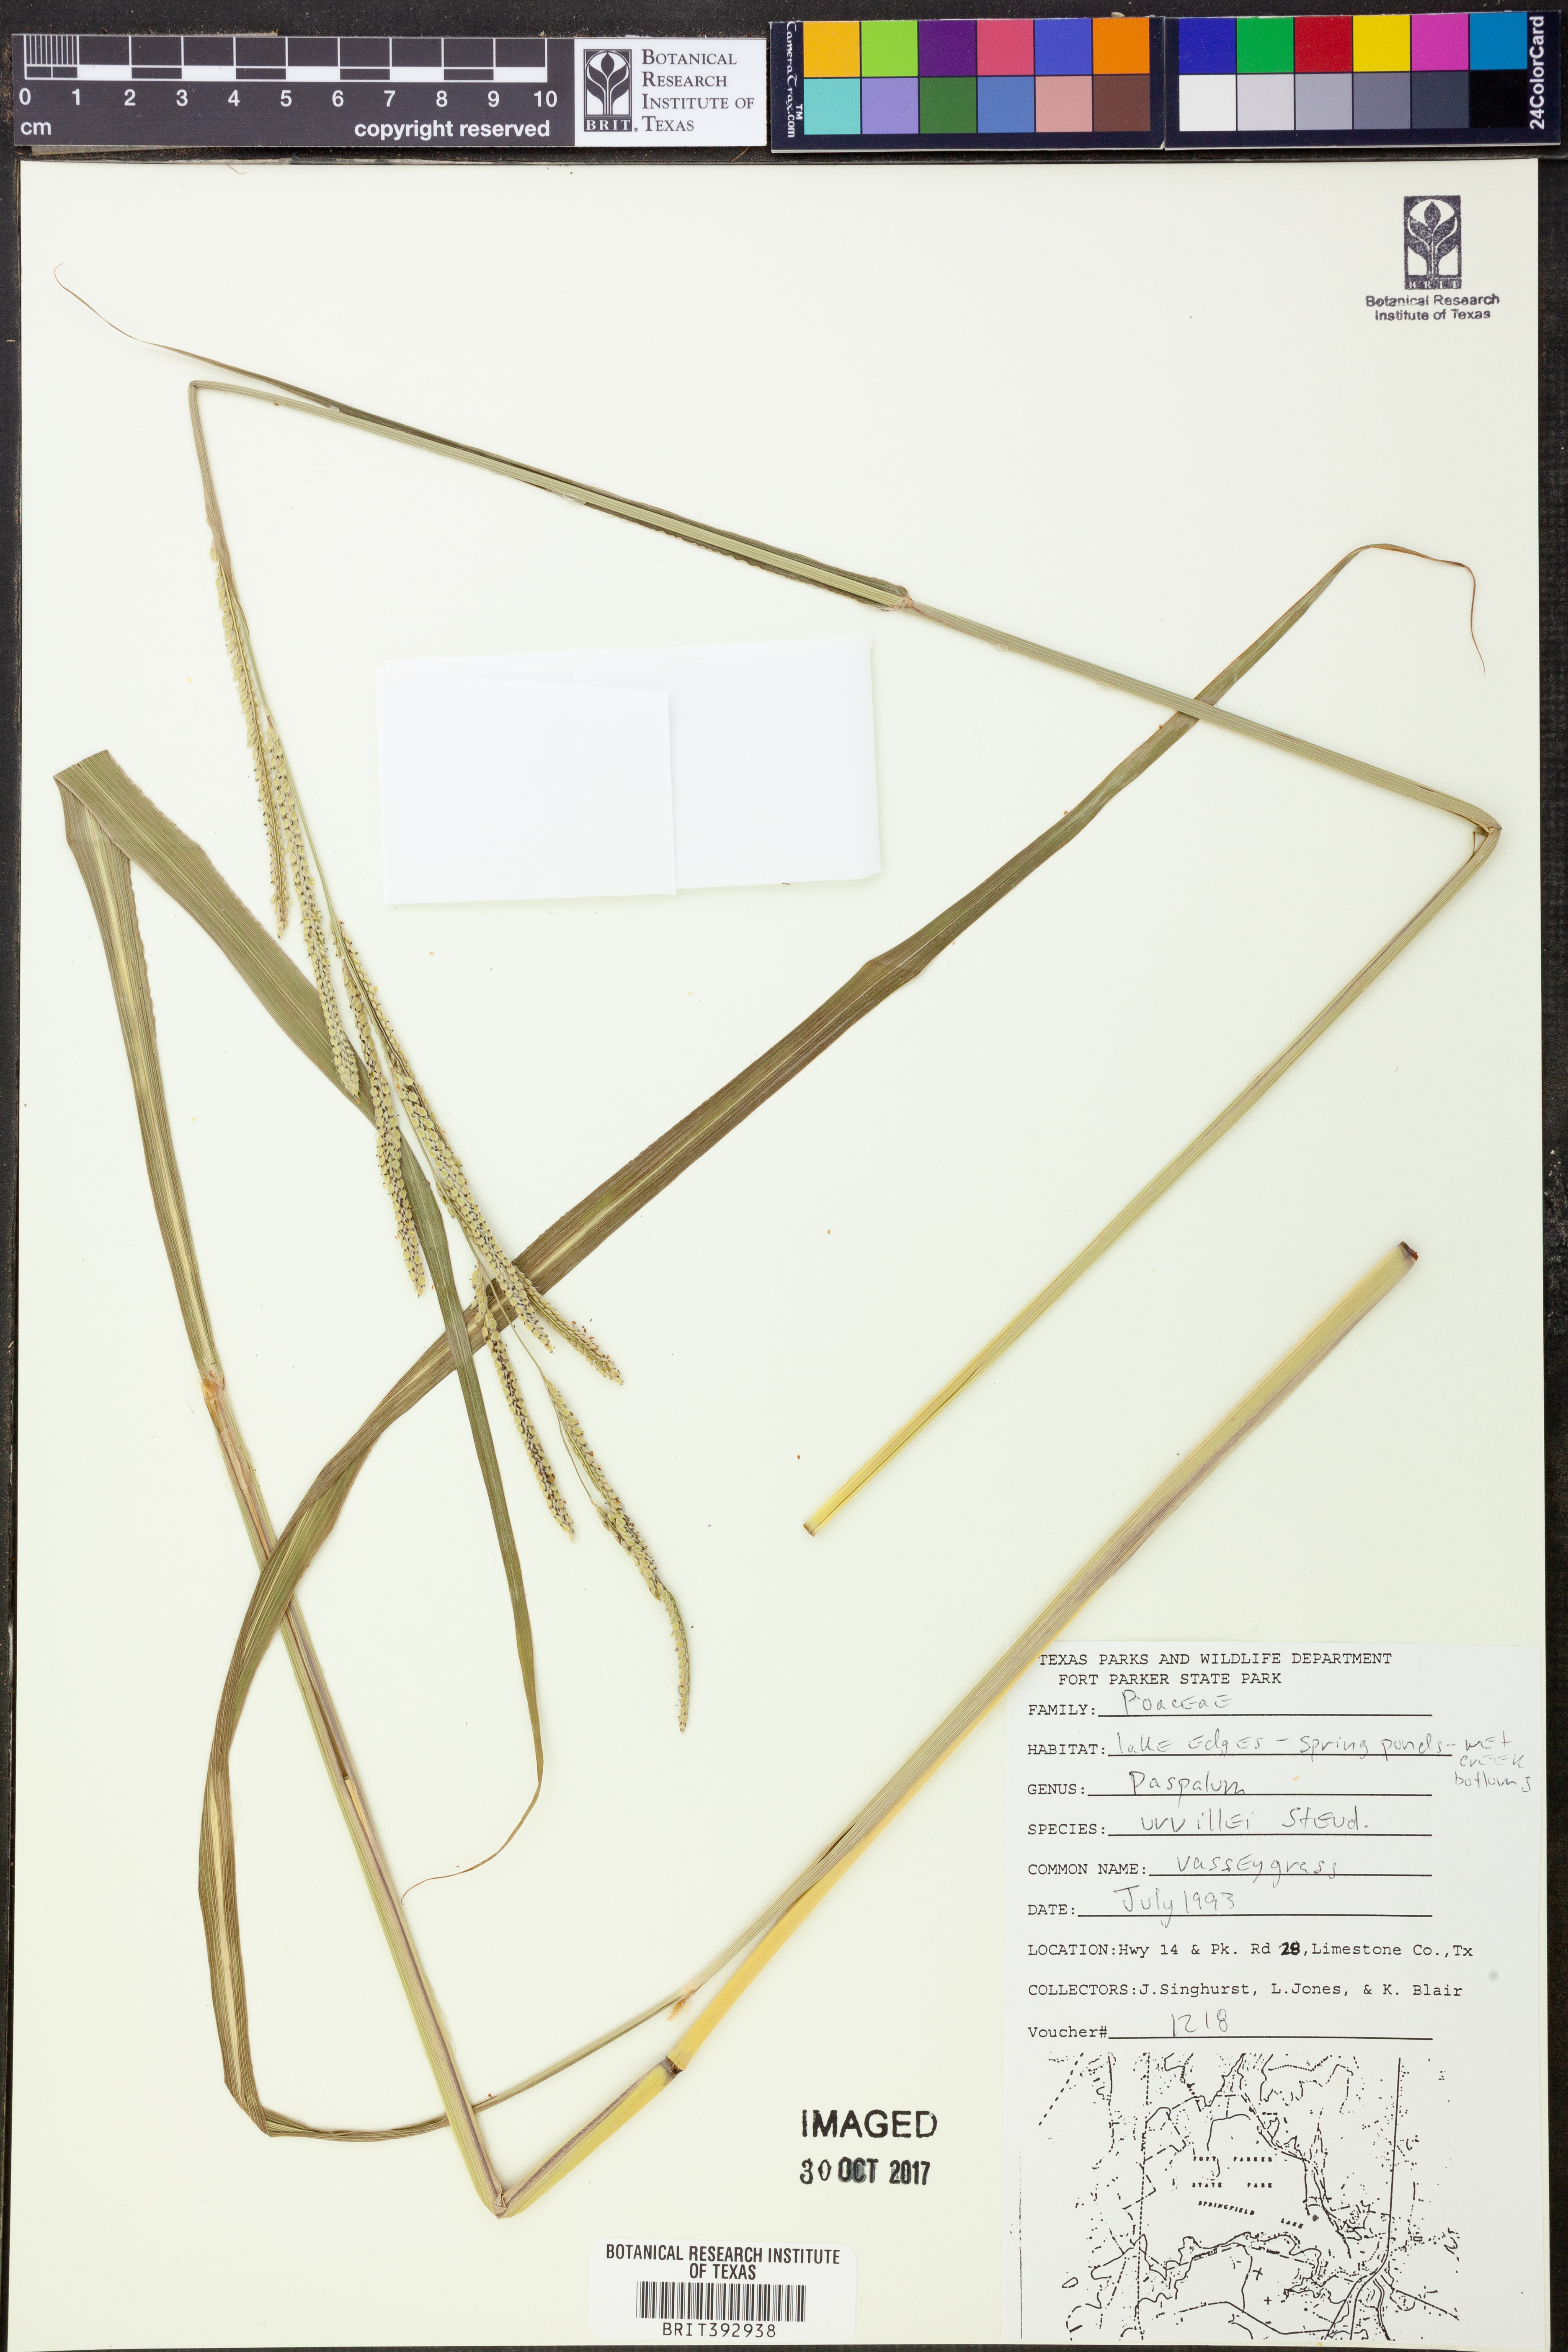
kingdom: Plantae
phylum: Tracheophyta
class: Liliopsida
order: Poales
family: Poaceae
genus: Paspalum
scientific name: Paspalum urvillei
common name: Vasey's grass
